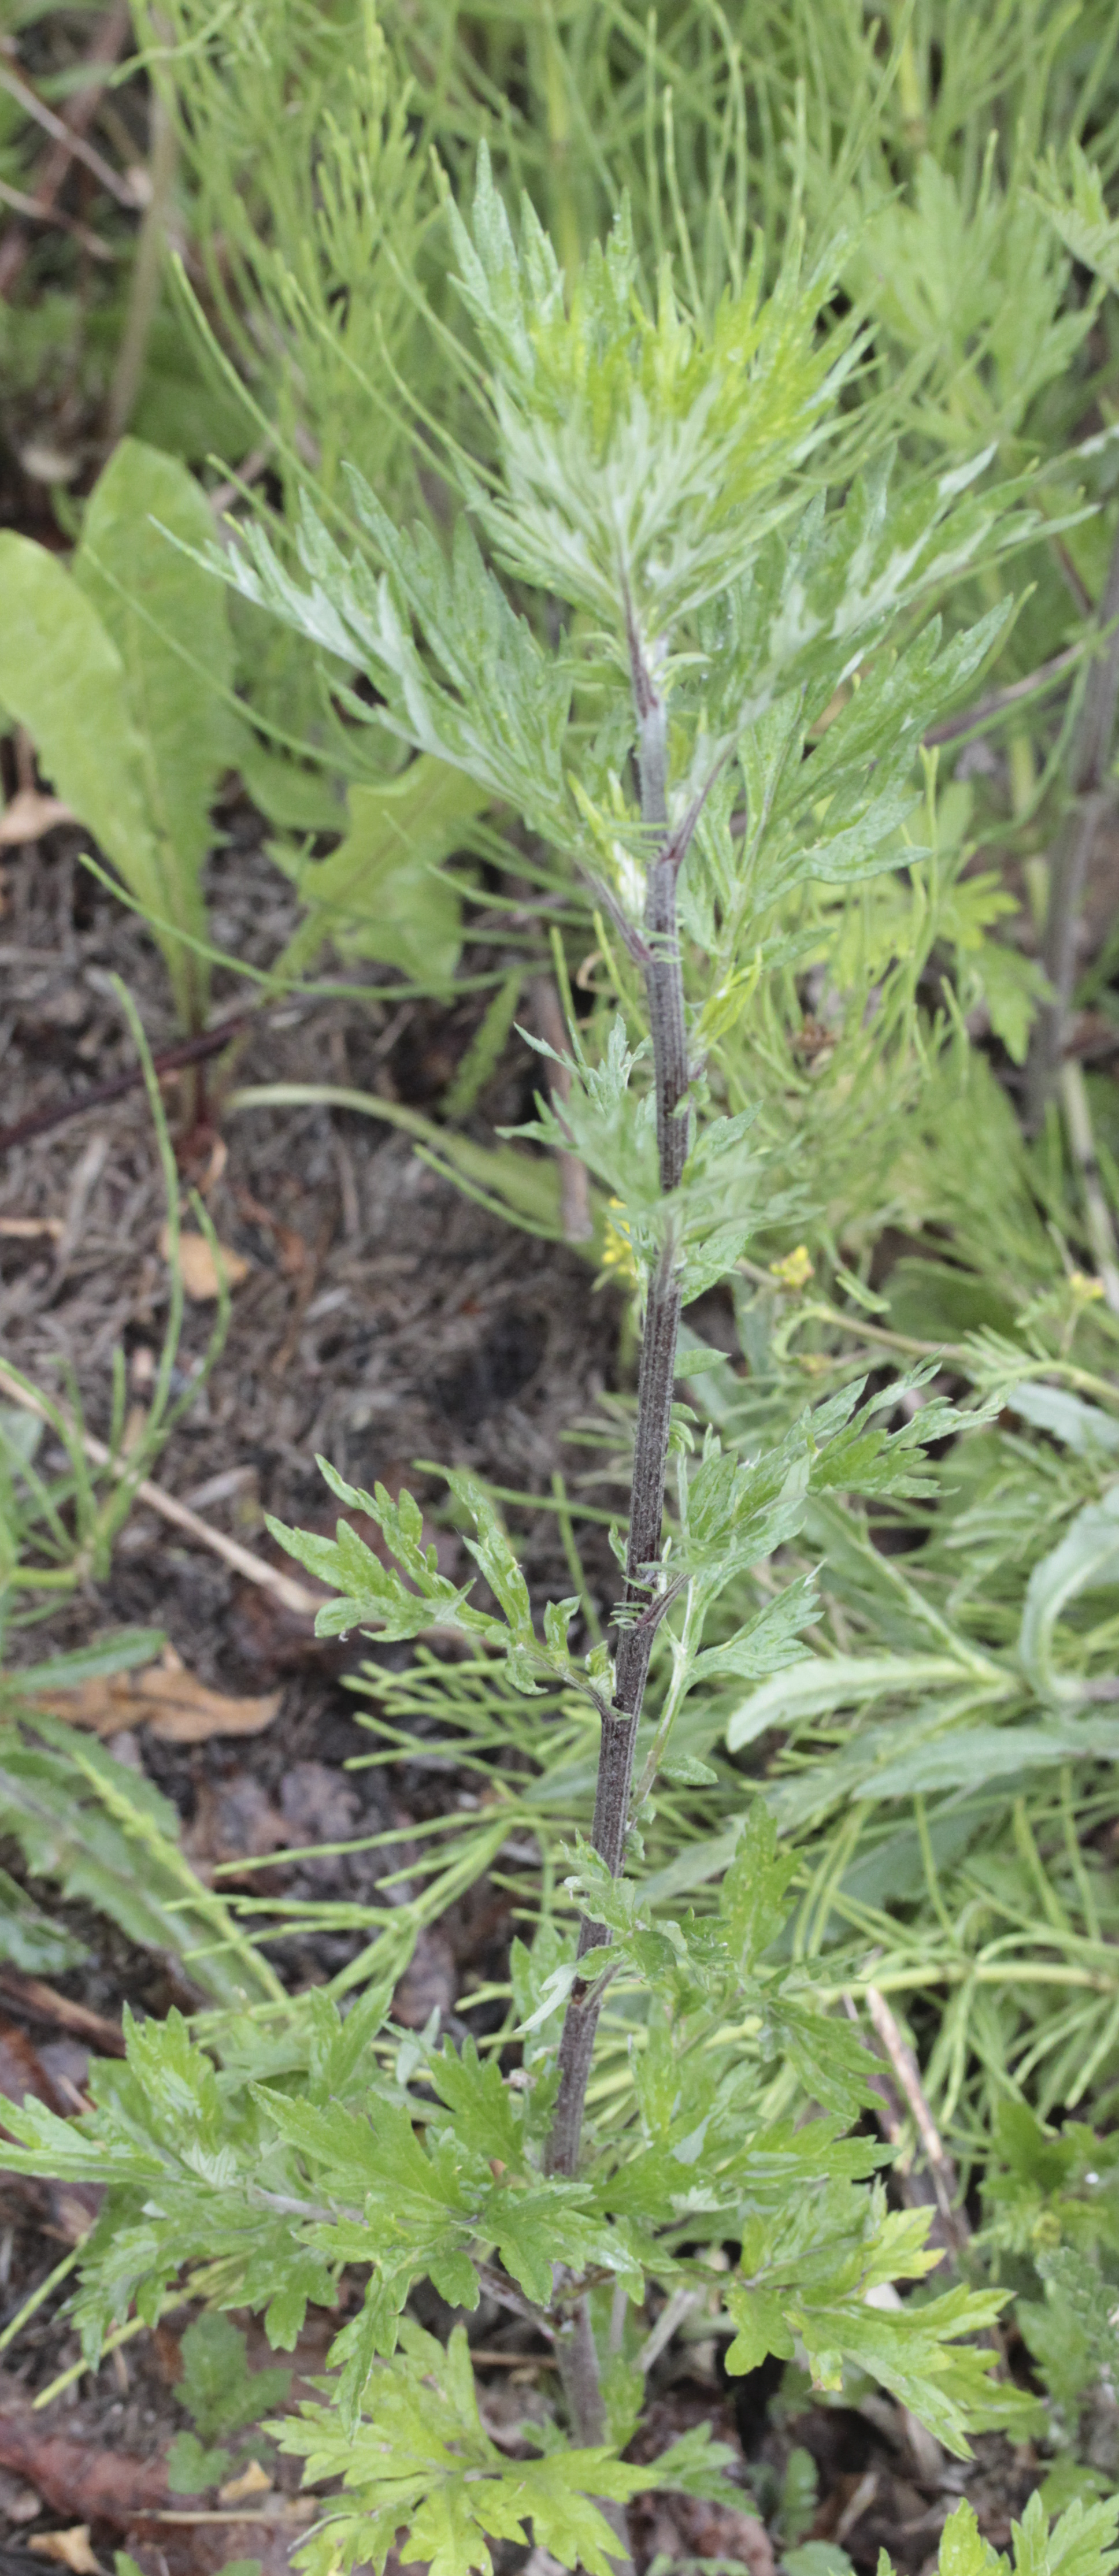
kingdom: Plantae
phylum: Tracheophyta
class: Magnoliopsida
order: Asterales
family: Asteraceae
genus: Artemisia
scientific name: Artemisia vulgaris
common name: Mugwort
